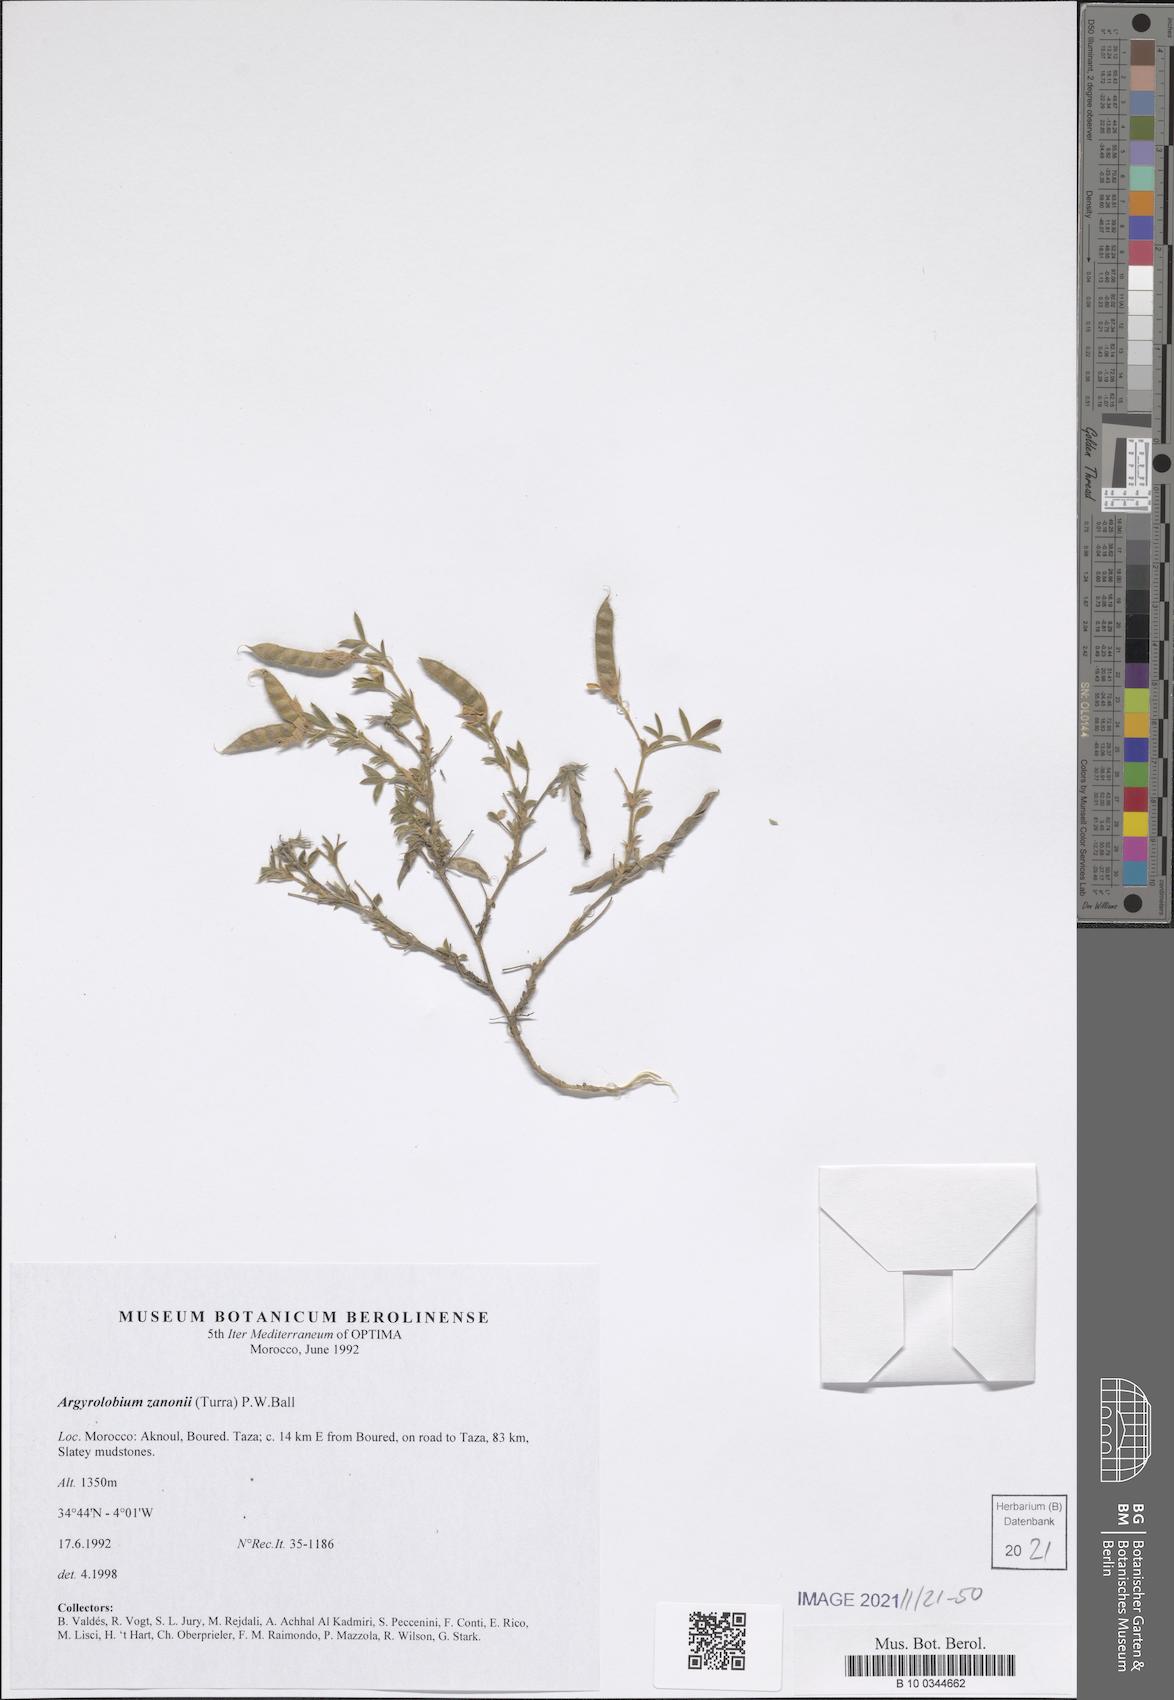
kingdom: Plantae
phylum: Tracheophyta
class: Magnoliopsida
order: Fabales
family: Fabaceae
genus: Argyrolobium
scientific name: Argyrolobium zanonii
